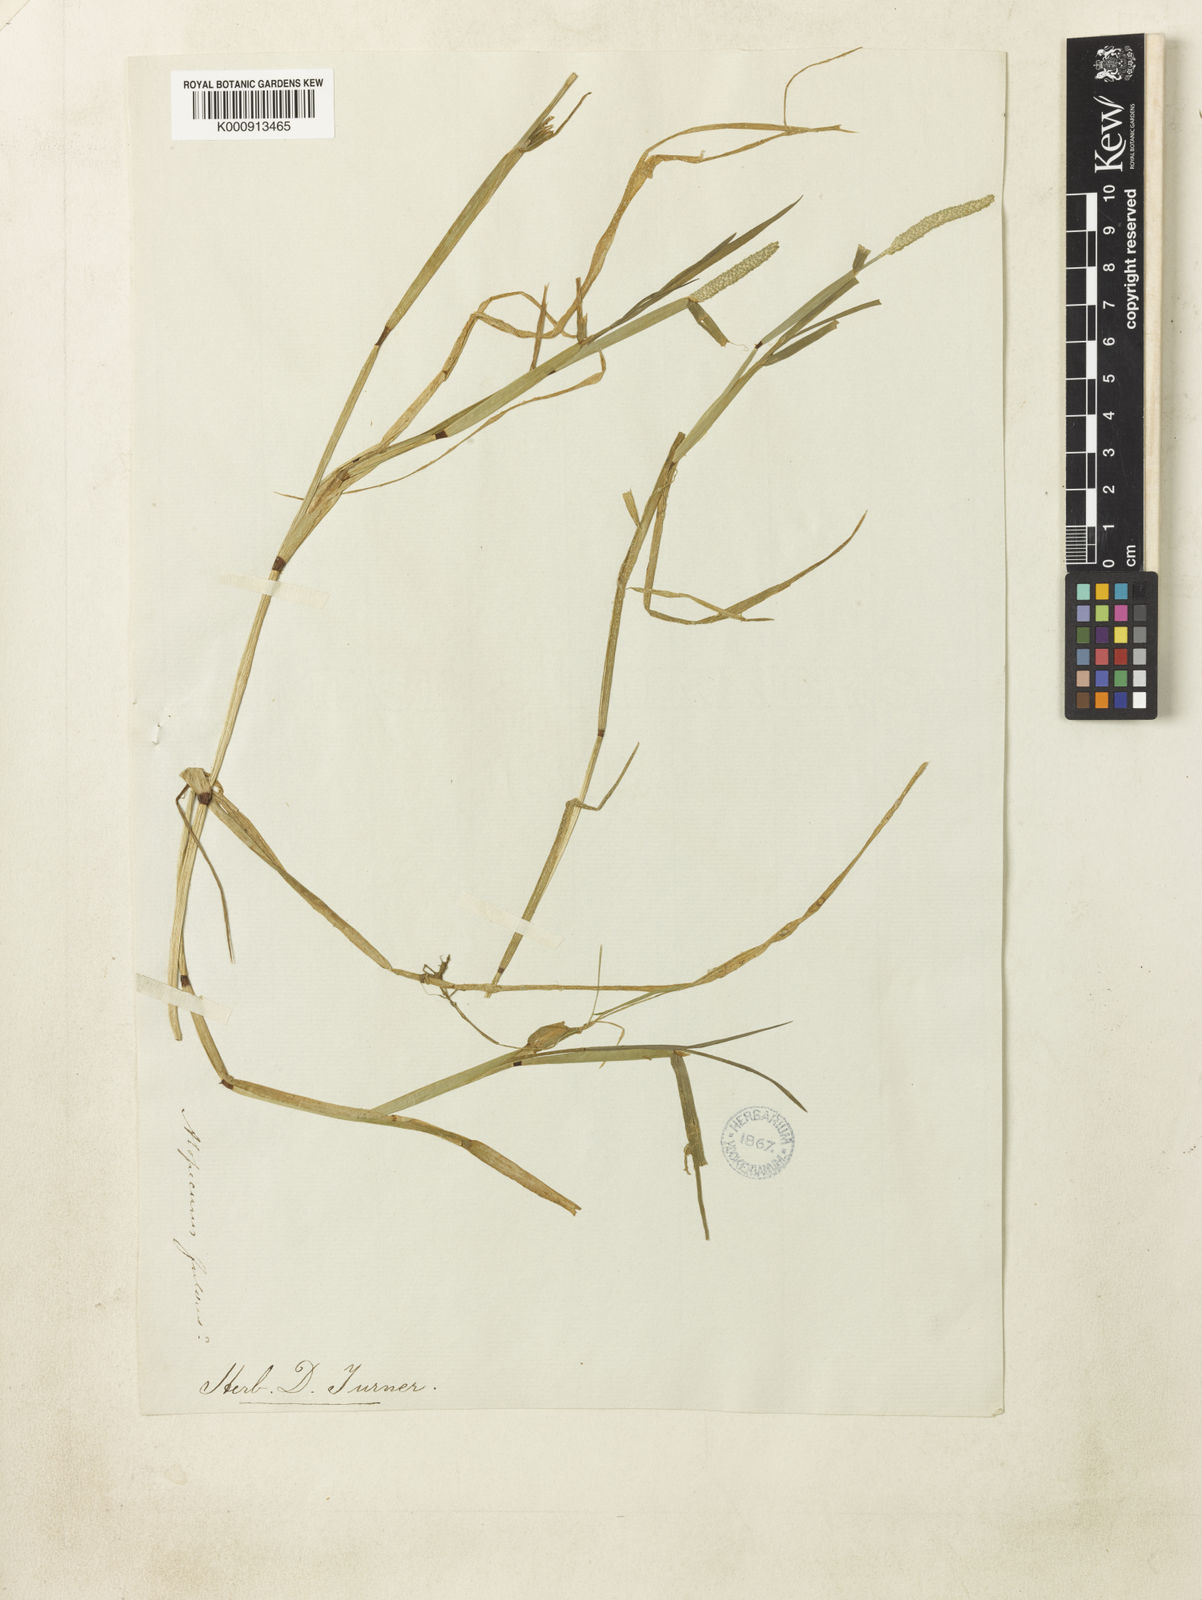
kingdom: Plantae
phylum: Tracheophyta
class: Liliopsida
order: Poales
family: Poaceae
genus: Alopecurus
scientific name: Alopecurus aequalis
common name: Orange foxtail
